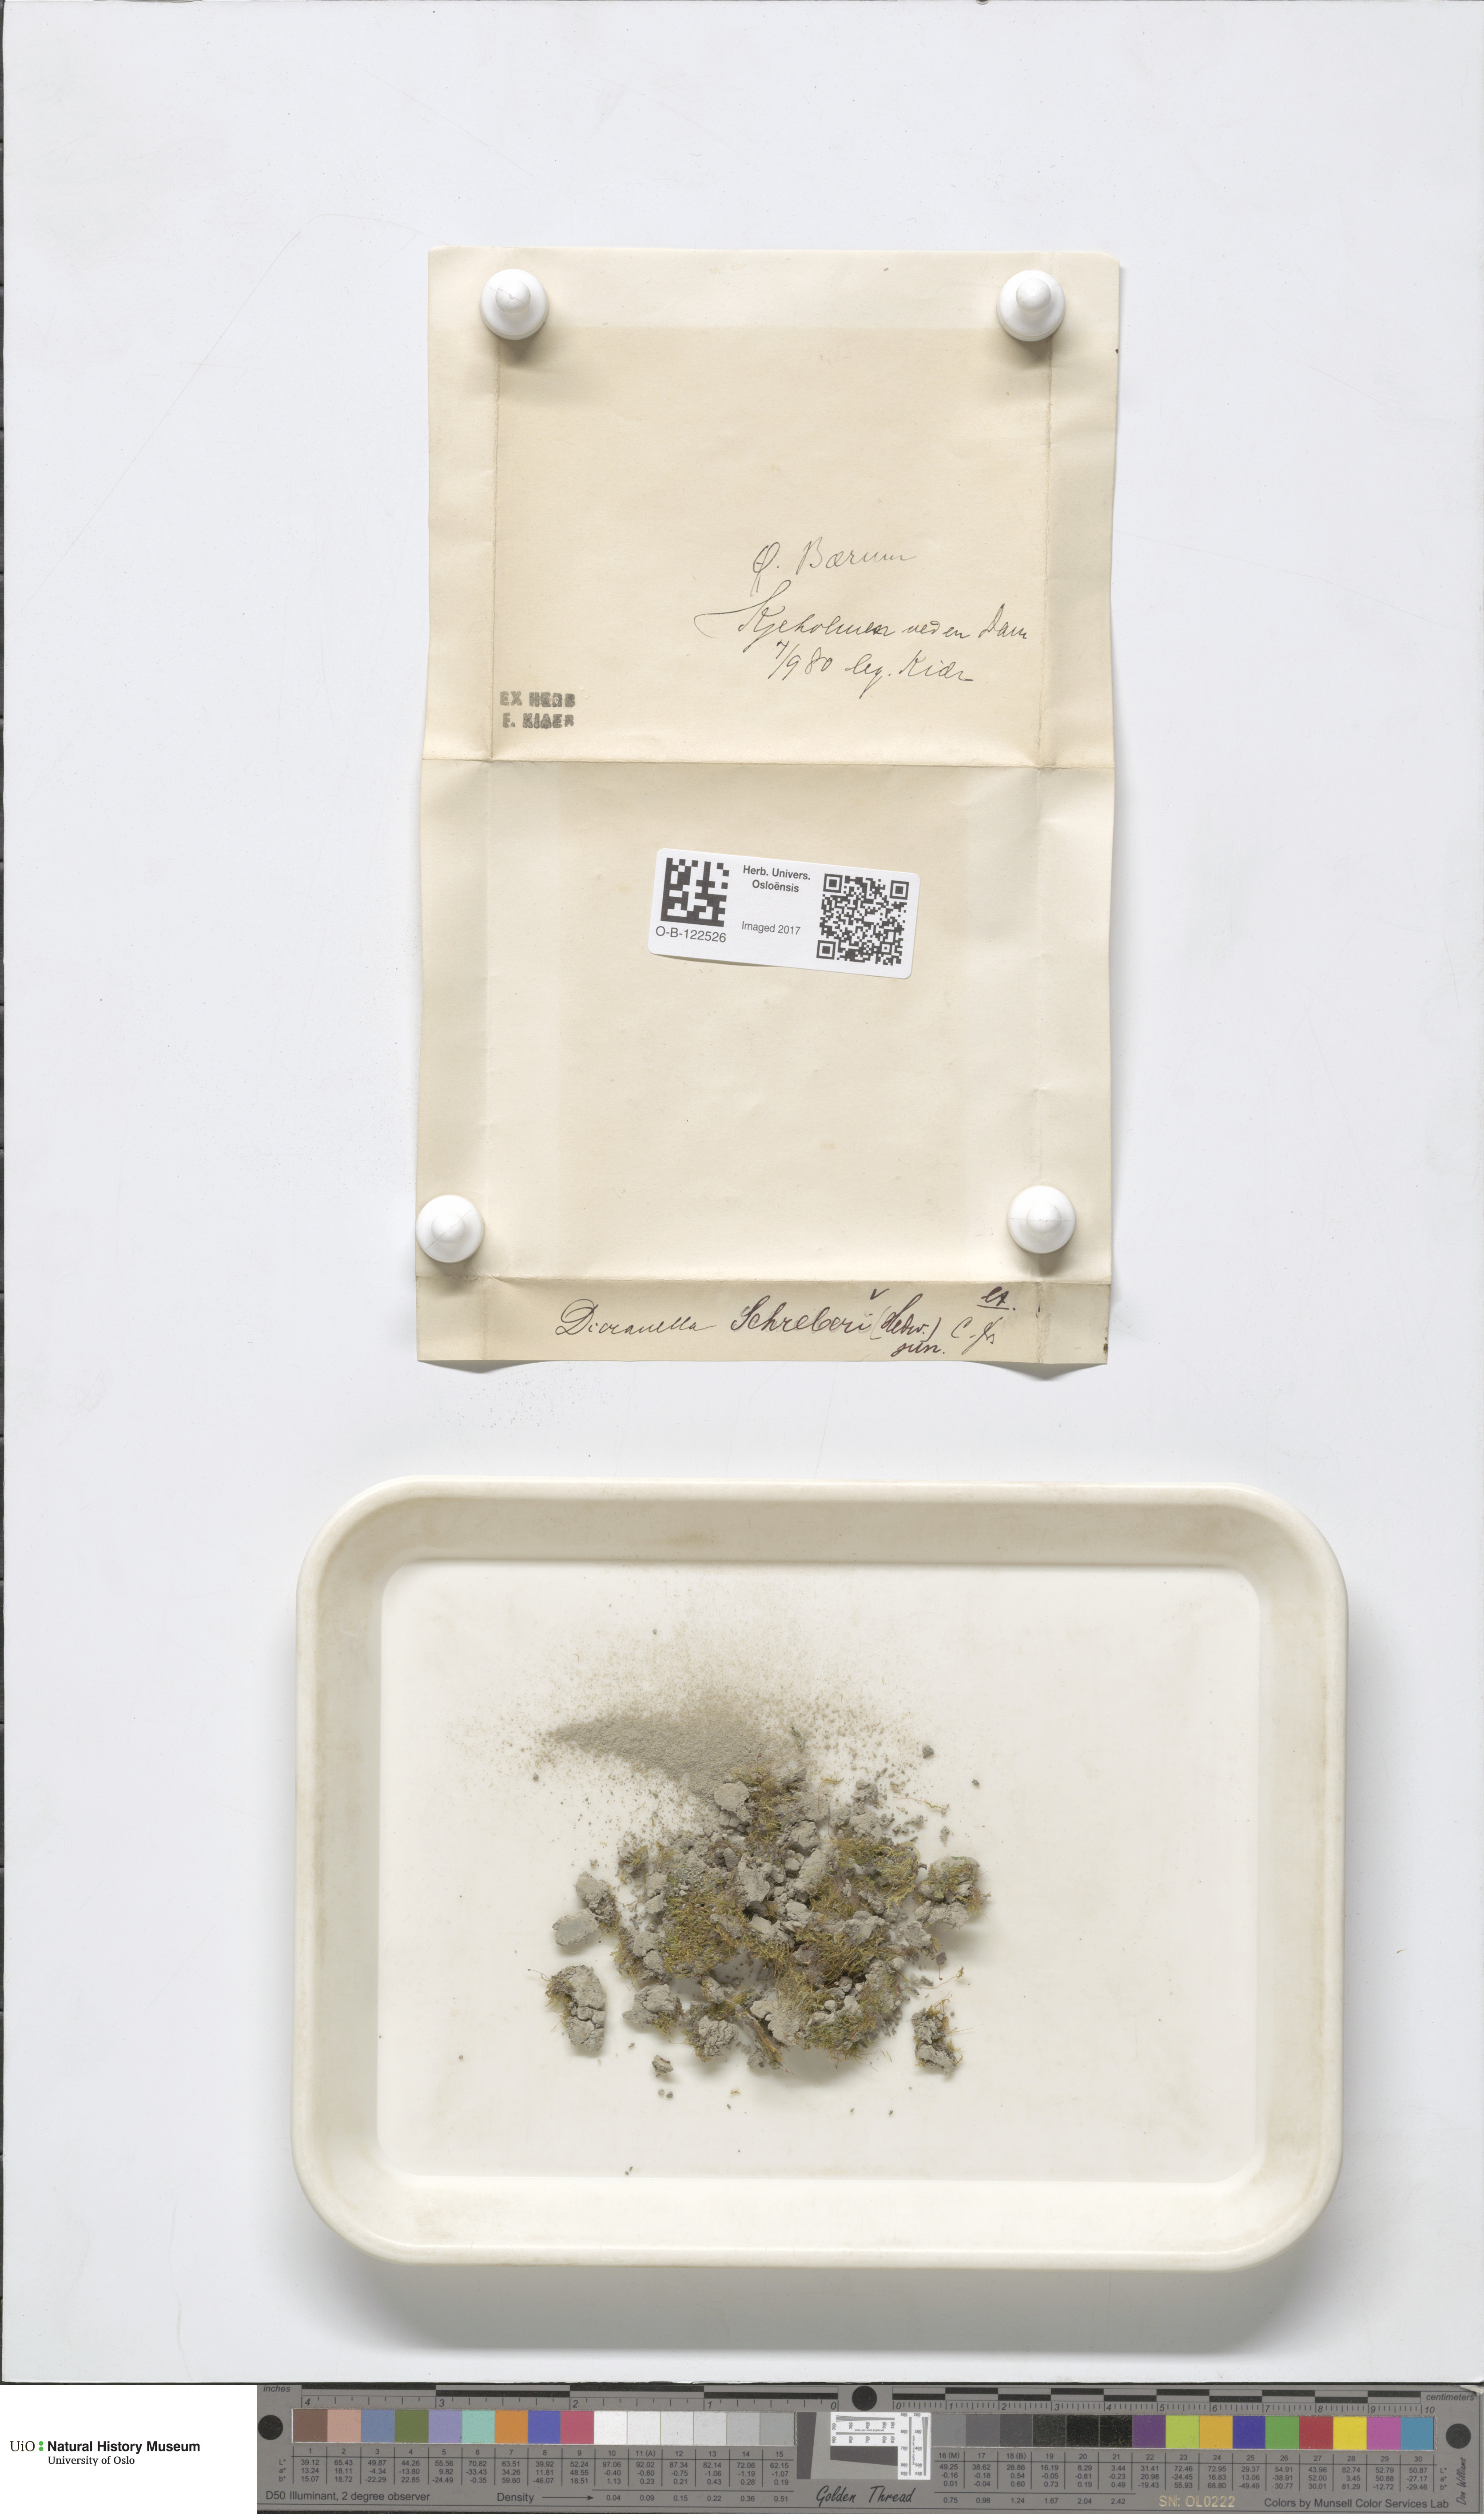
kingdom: Plantae
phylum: Bryophyta
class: Bryopsida
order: Dicranales
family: Dicranellaceae
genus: Dicranella
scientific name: Dicranella schreberiana
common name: Schreber's forklet moss
